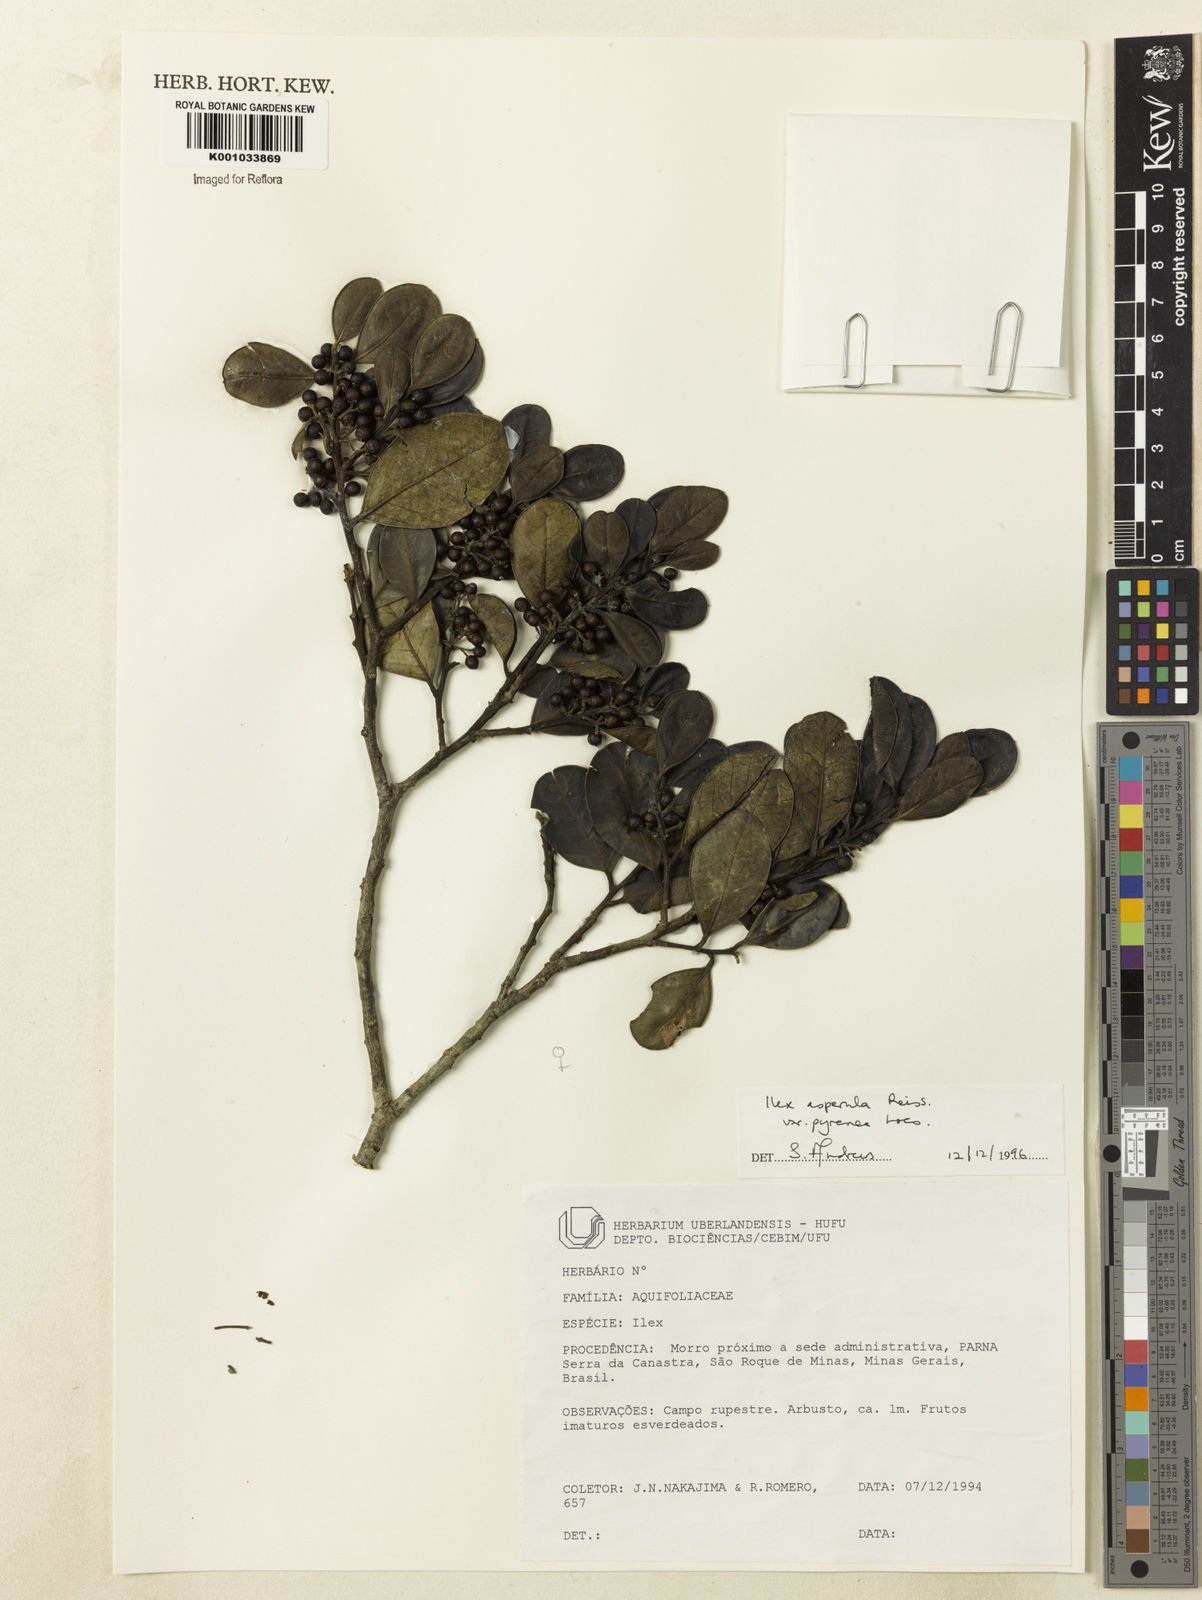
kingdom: Plantae
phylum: Tracheophyta
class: Magnoliopsida
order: Aquifoliales
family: Aquifoliaceae
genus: Ilex
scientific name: Ilex asperula
